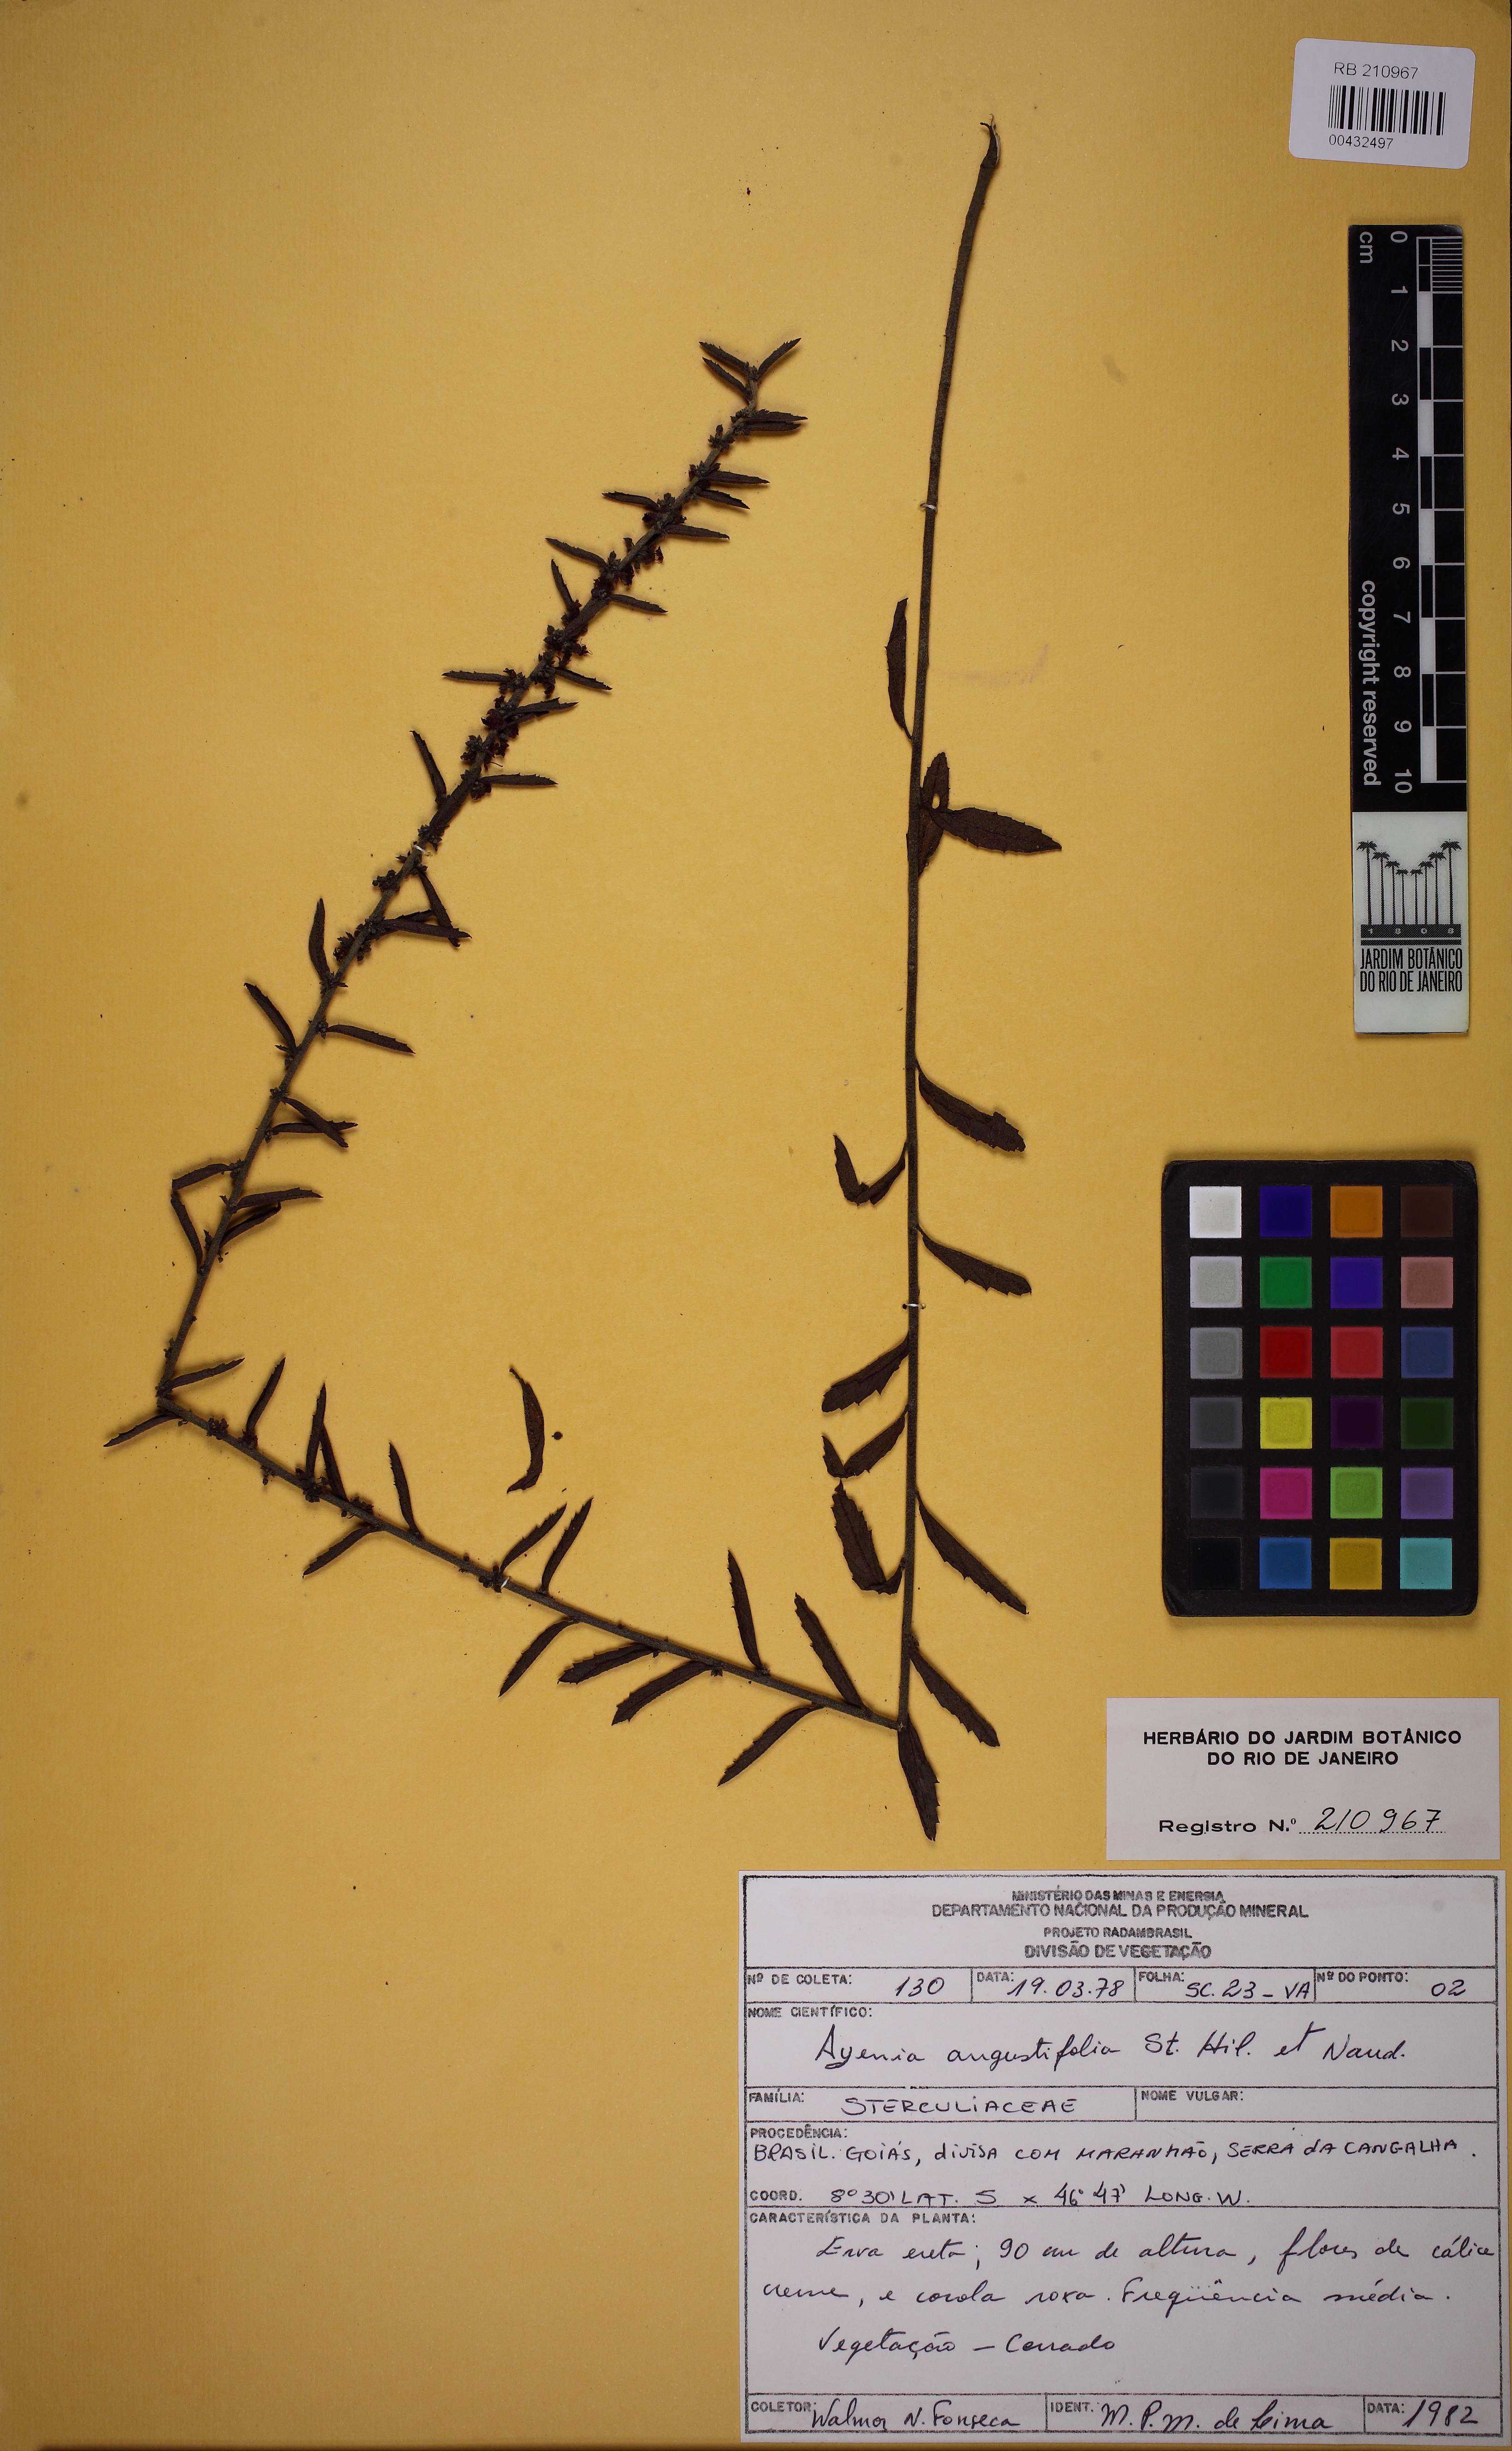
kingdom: Plantae
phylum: Tracheophyta
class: Magnoliopsida
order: Malvales
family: Malvaceae
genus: Ayenia
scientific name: Ayenia angustifolia
